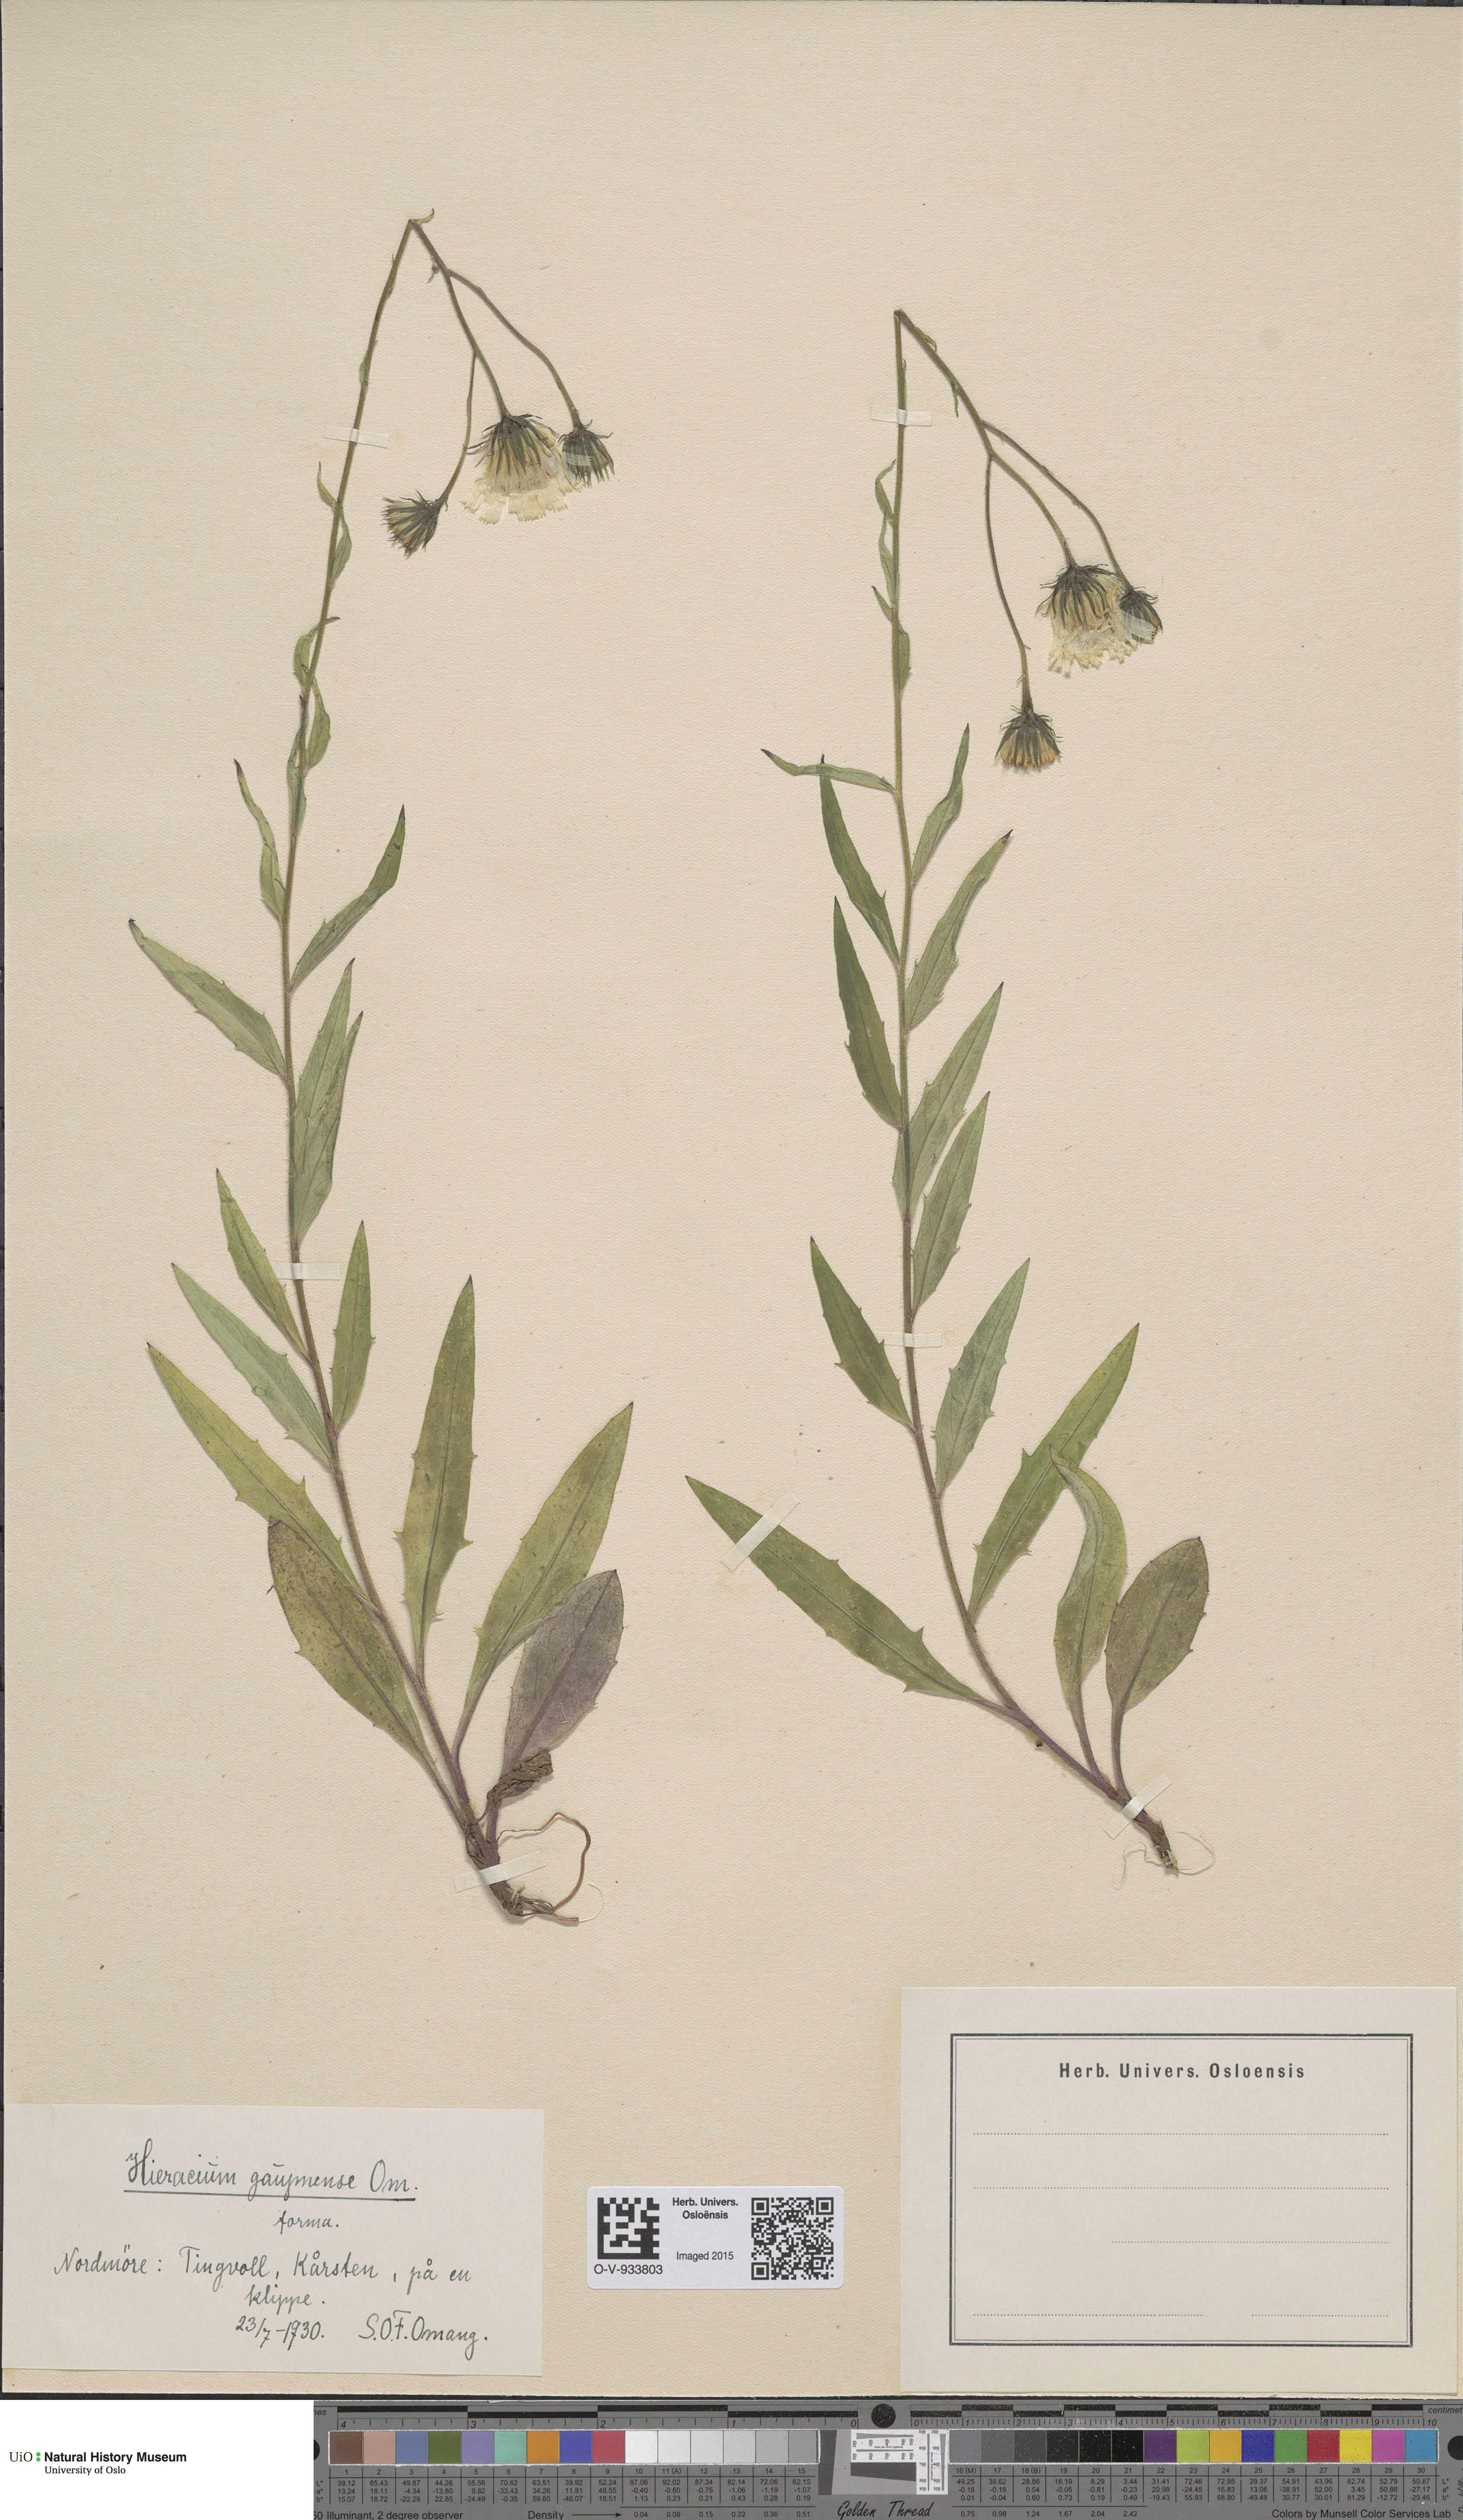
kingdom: Plantae
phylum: Tracheophyta
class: Magnoliopsida
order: Asterales
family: Asteraceae
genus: Hieracium
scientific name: Hieracium
